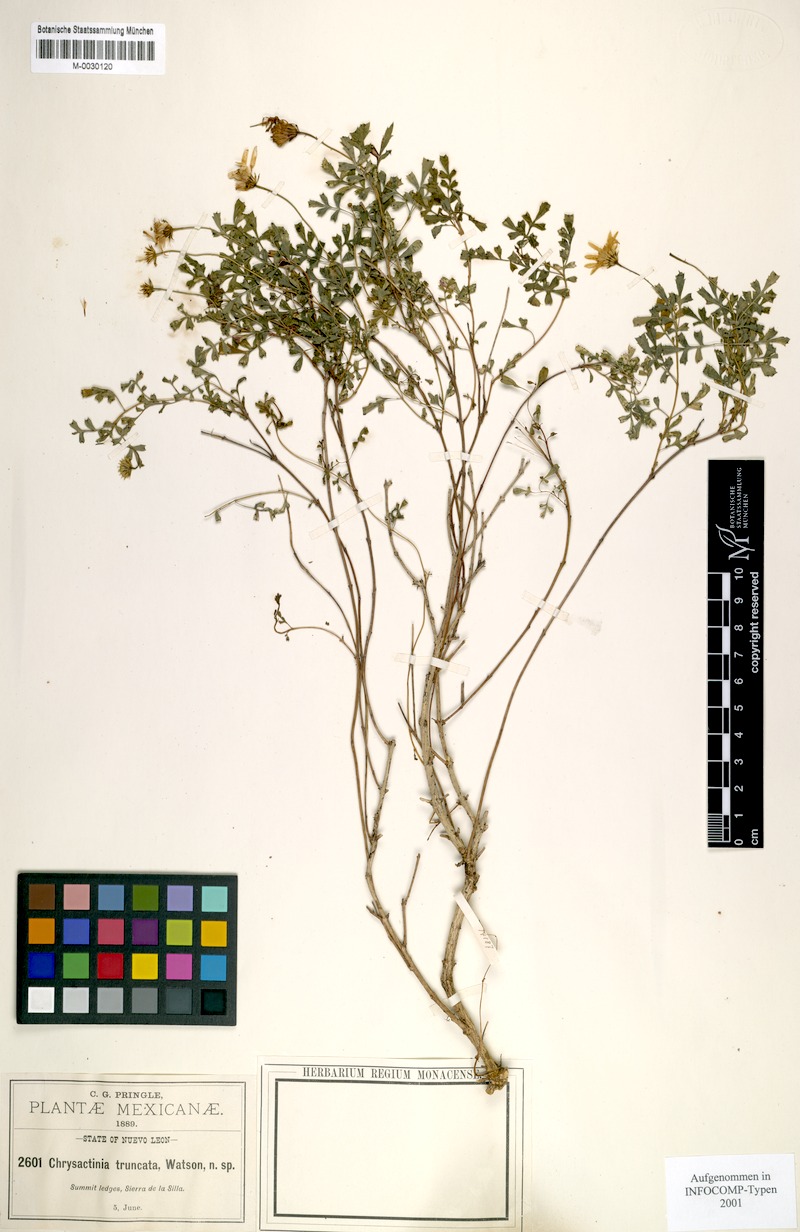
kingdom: Plantae
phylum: Tracheophyta
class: Magnoliopsida
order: Asterales
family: Asteraceae
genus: Chrysactinia
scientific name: Chrysactinia truncata
